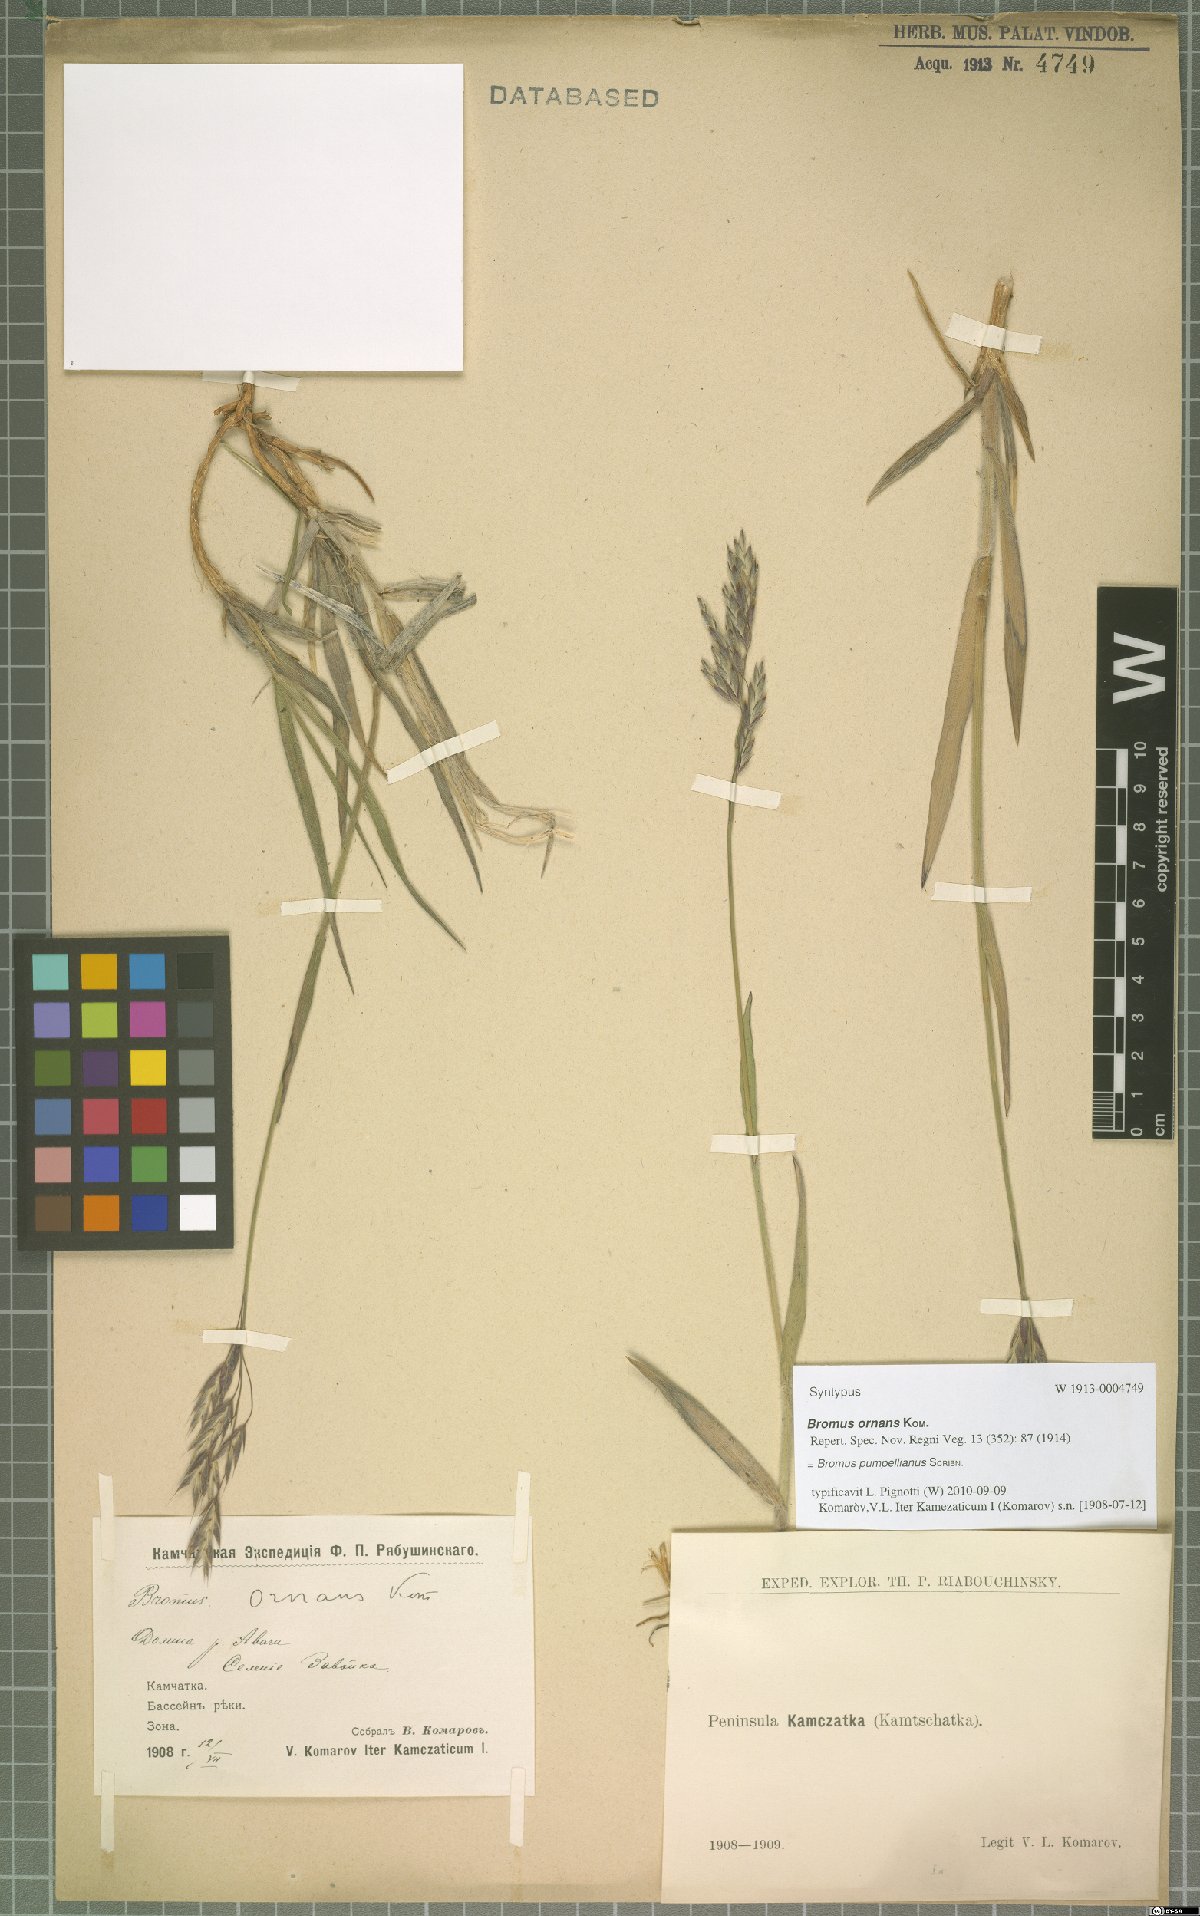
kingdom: Plantae
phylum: Tracheophyta
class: Liliopsida
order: Poales
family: Poaceae
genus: Bromus
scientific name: Bromus pumpellianus
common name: Pumpelly's brome
